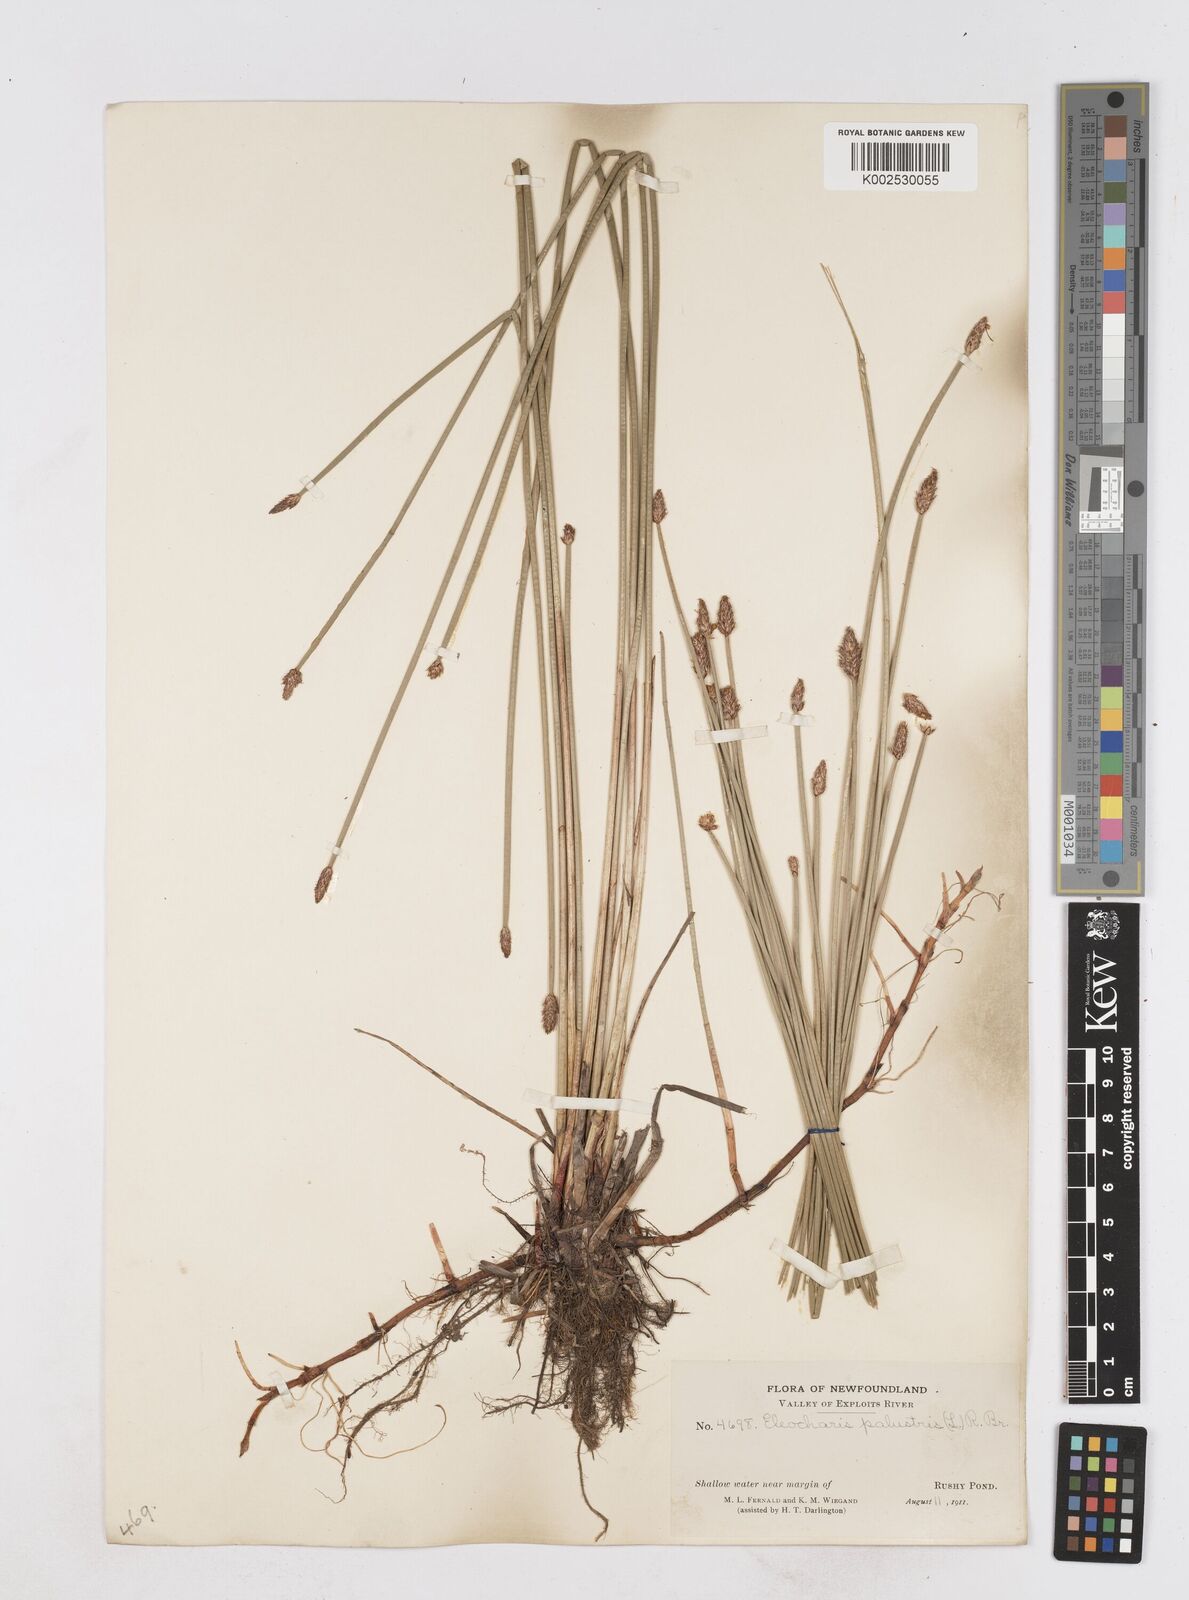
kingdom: Plantae
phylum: Tracheophyta
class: Liliopsida
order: Poales
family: Cyperaceae
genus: Eleocharis
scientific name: Eleocharis palustris
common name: Common spike-rush
